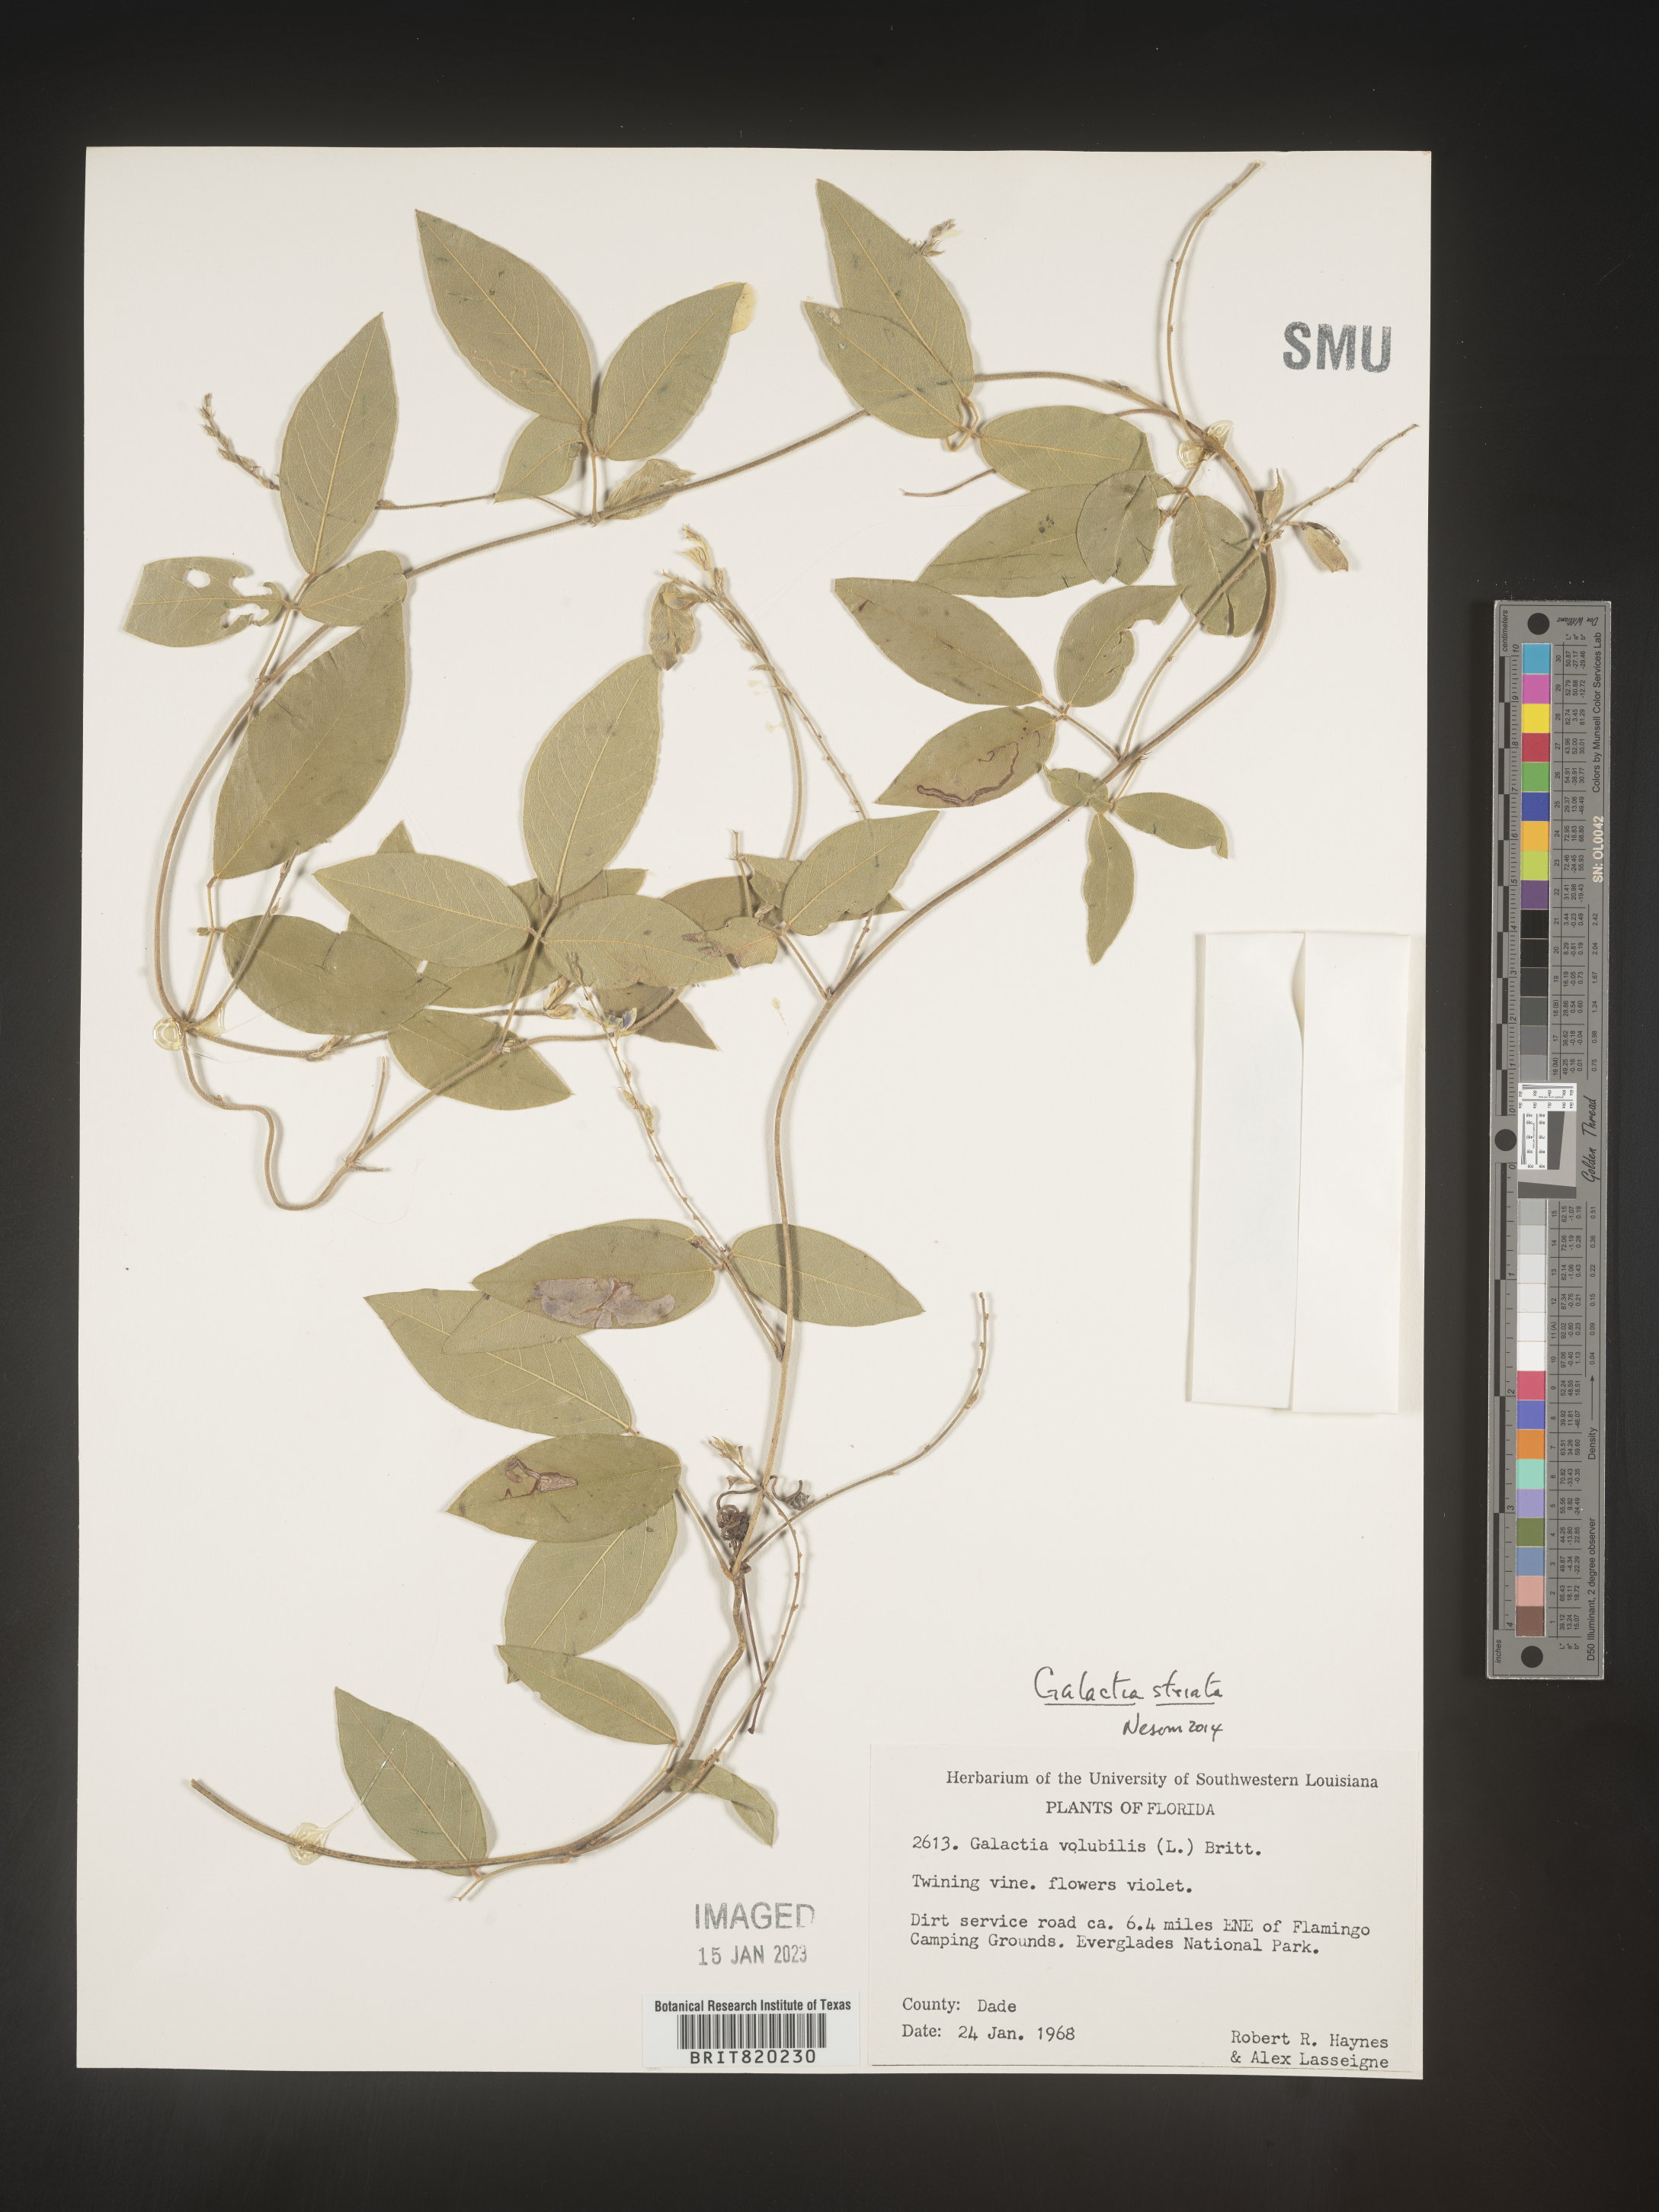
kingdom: Plantae
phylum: Tracheophyta
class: Magnoliopsida
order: Fabales
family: Fabaceae
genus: Galactia
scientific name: Galactia striata
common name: Florida hammock milkpea
